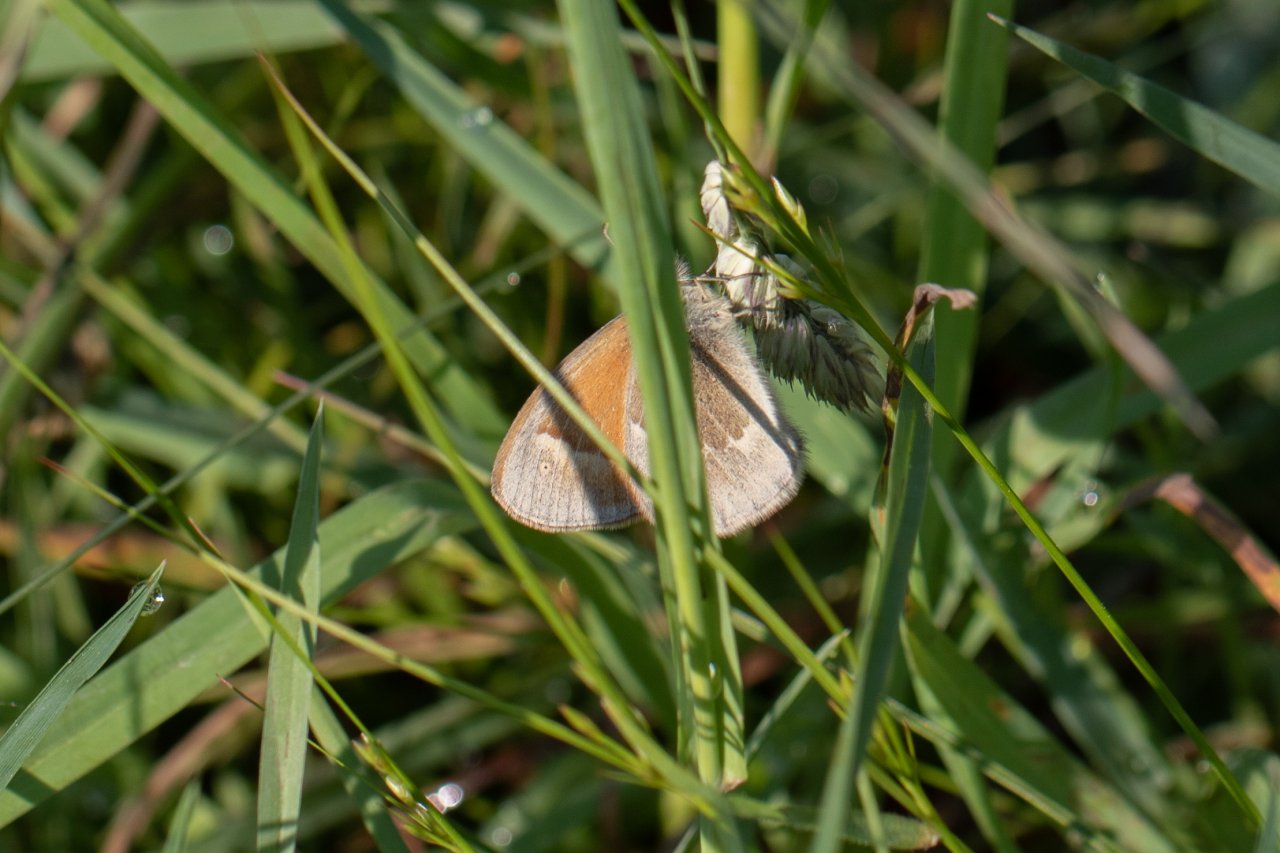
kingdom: Animalia
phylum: Arthropoda
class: Insecta
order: Lepidoptera
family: Nymphalidae
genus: Coenonympha
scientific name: Coenonympha tullia
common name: Large Heath
